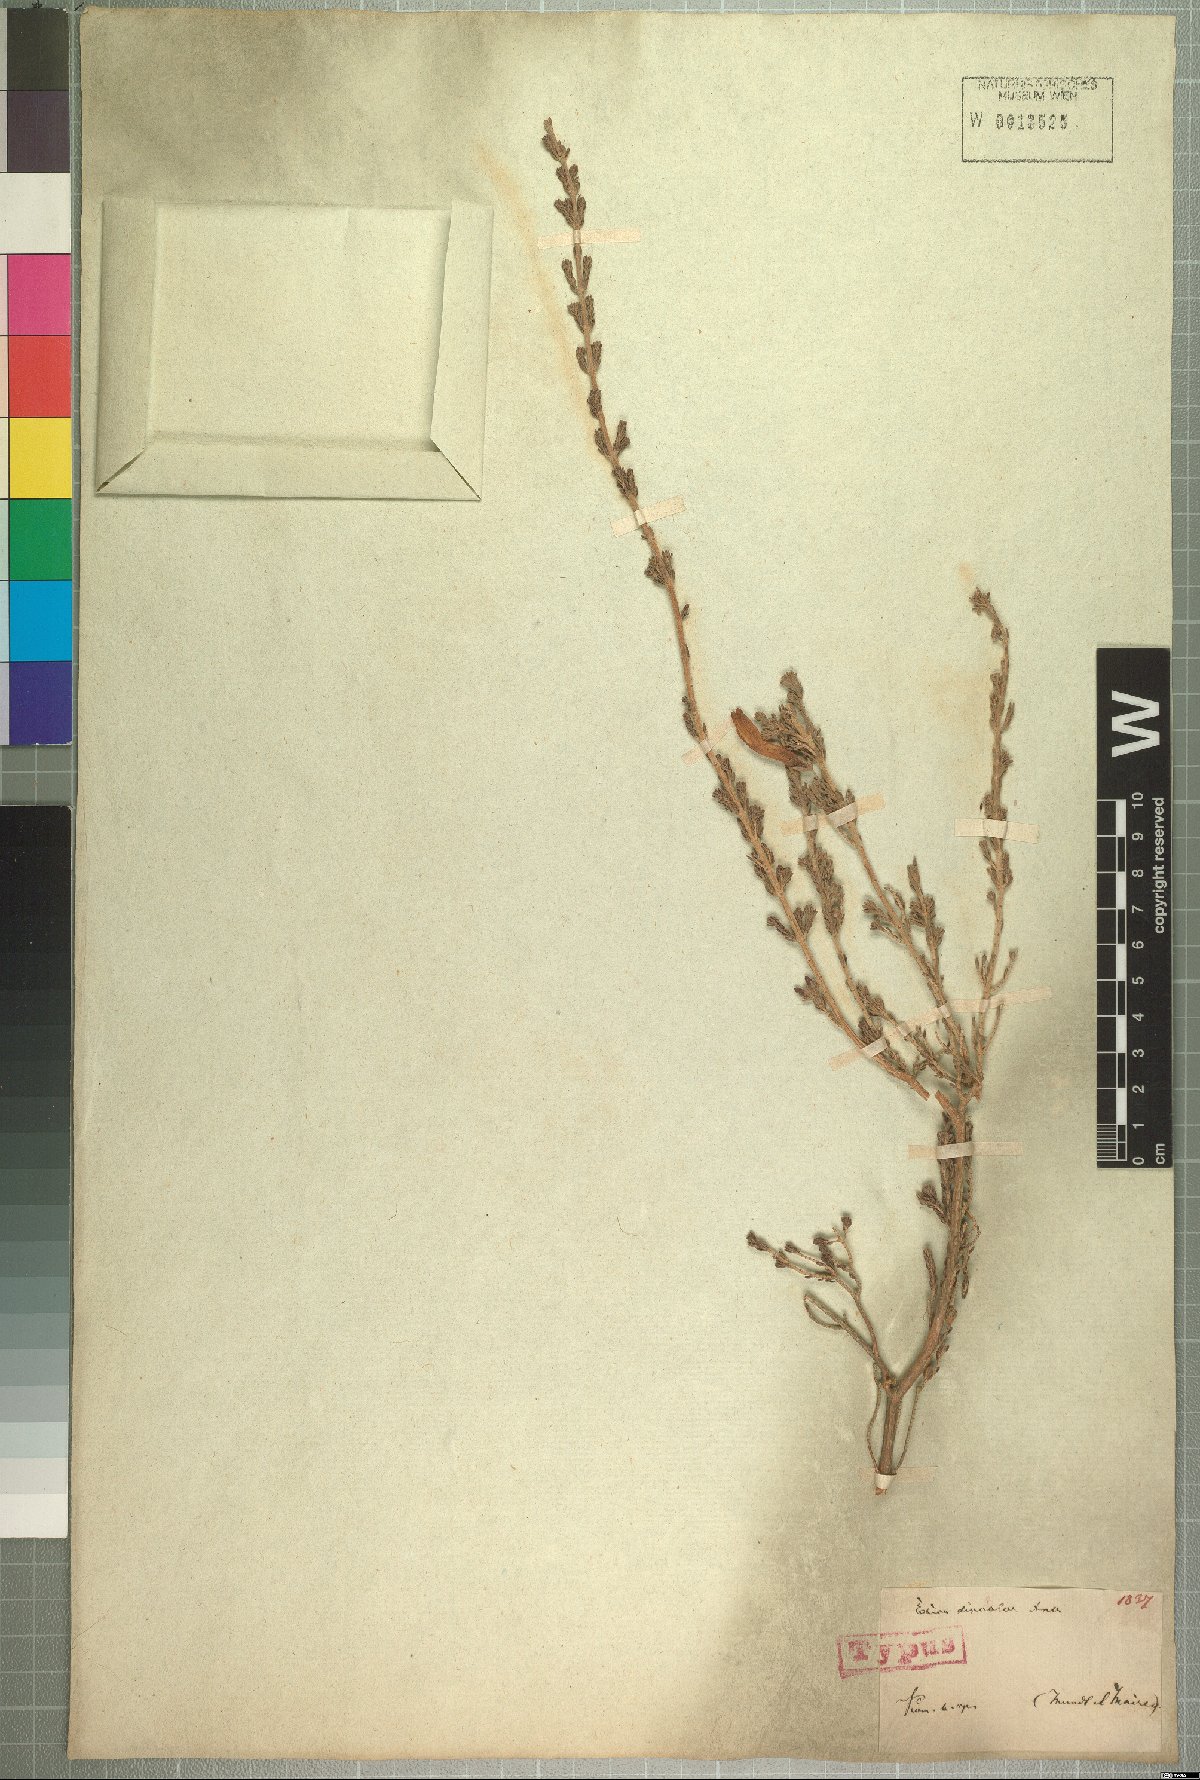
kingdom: Plantae
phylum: Tracheophyta
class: Magnoliopsida
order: Ericales
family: Ericaceae
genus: Erica
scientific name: Erica discolor
